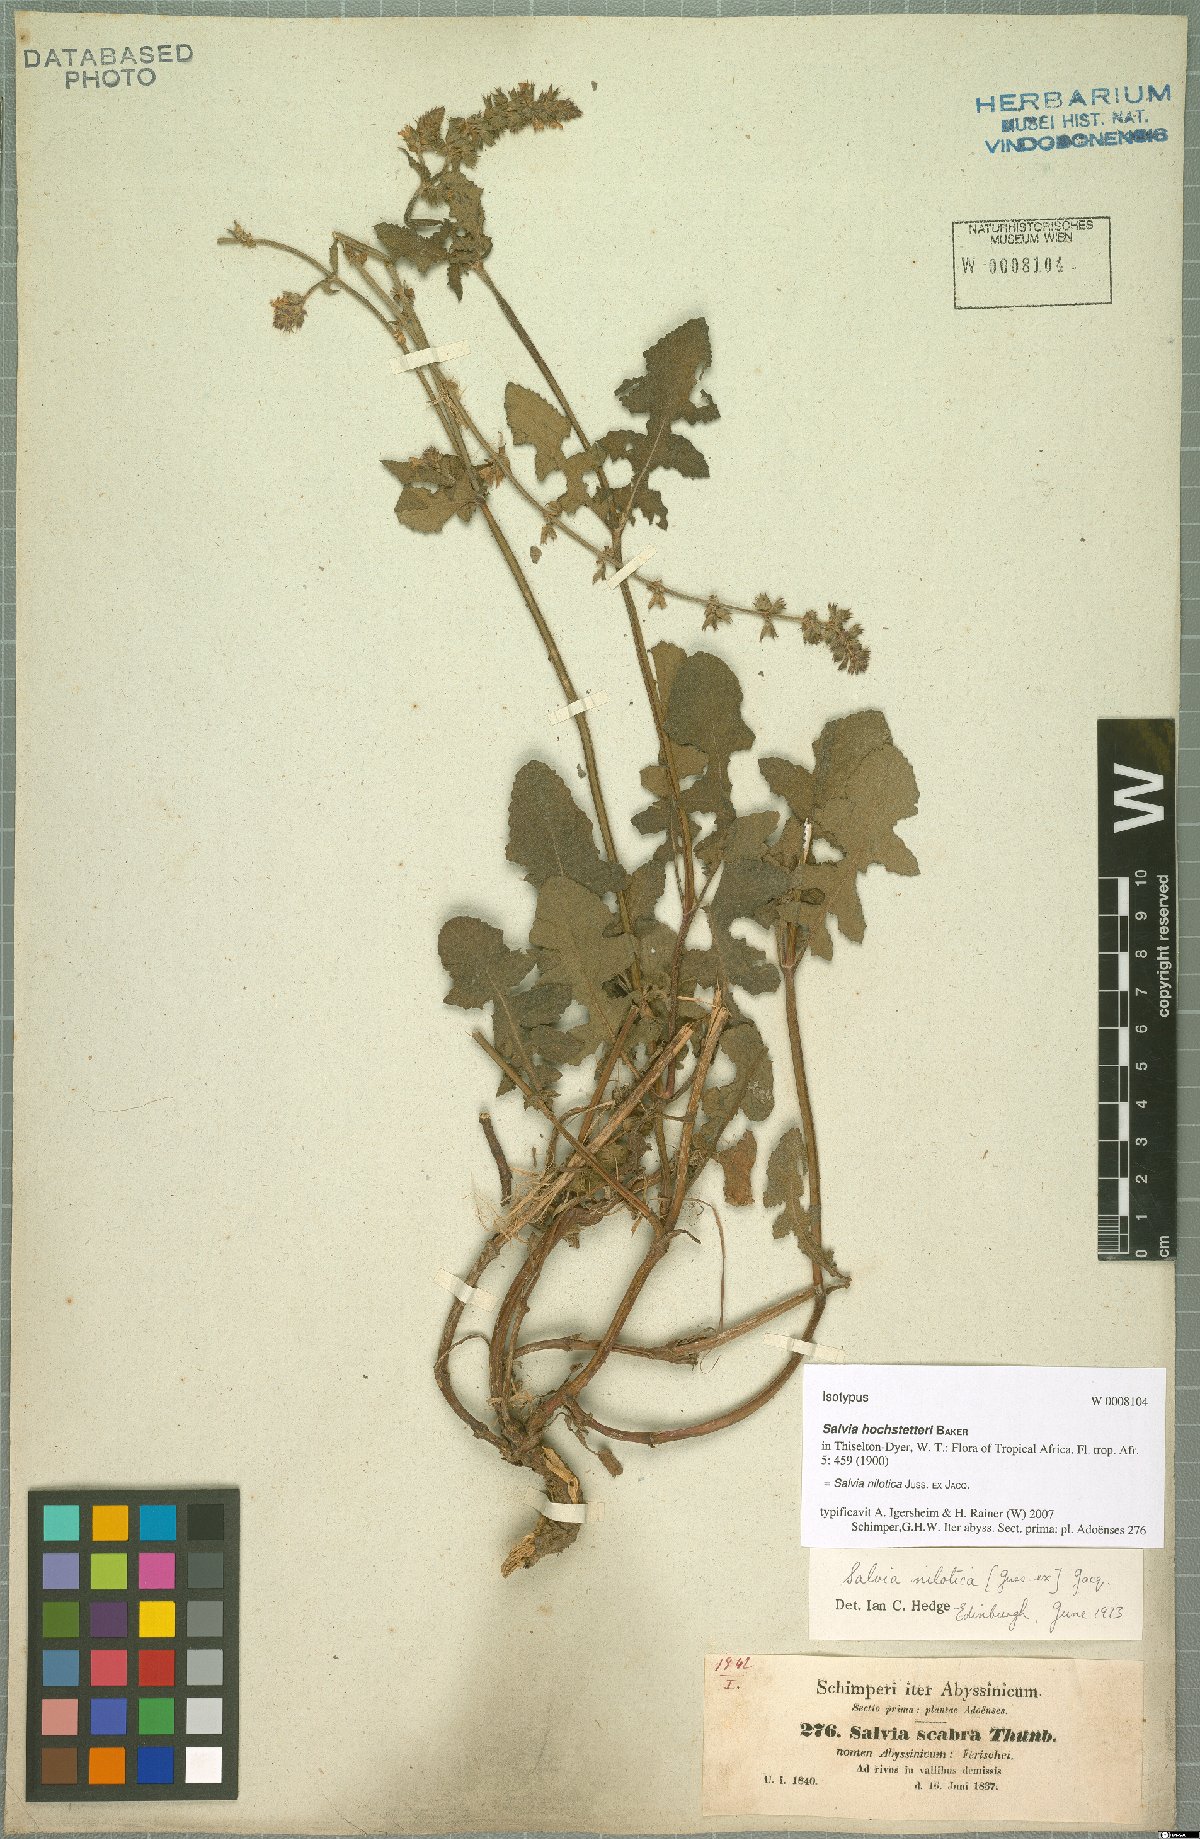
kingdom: Plantae
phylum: Tracheophyta
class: Magnoliopsida
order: Lamiales
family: Lamiaceae
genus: Salvia
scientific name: Salvia nilotica
